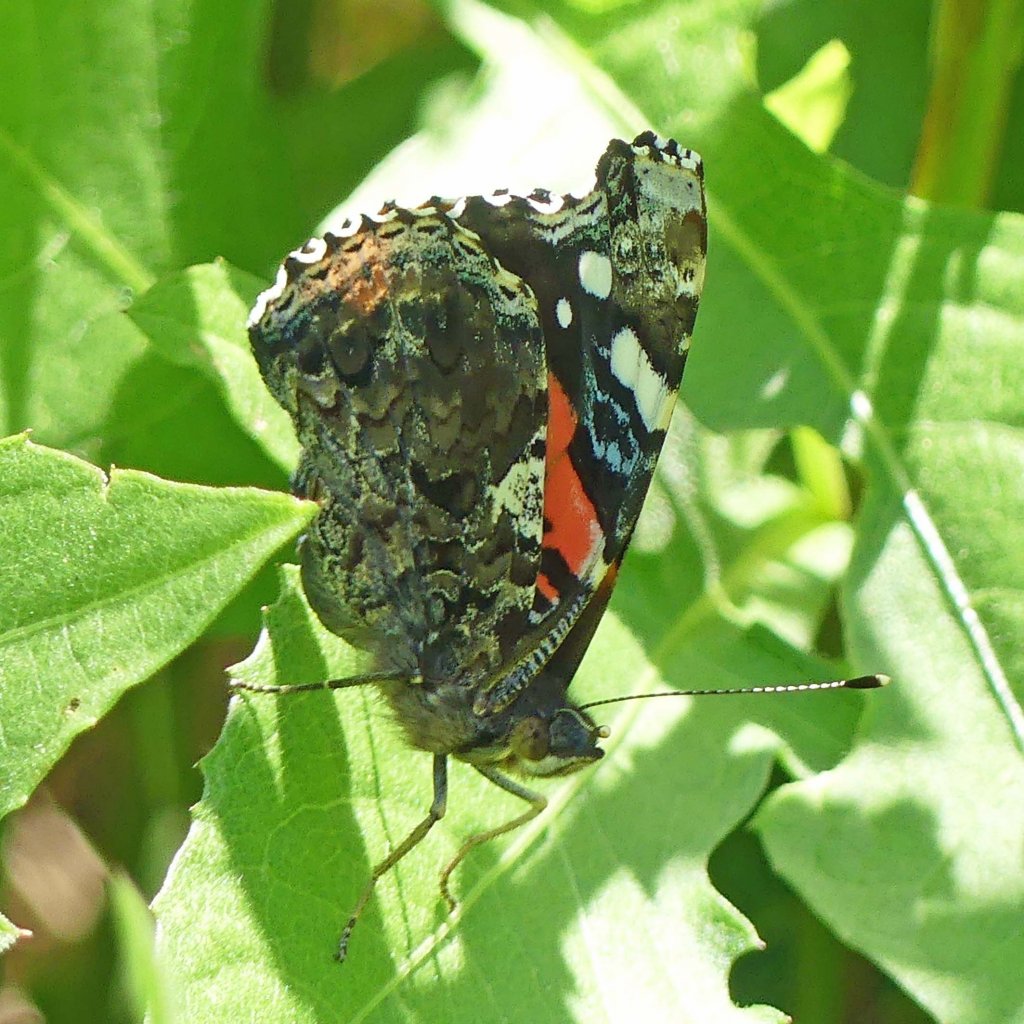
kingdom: Animalia
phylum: Arthropoda
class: Insecta
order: Lepidoptera
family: Nymphalidae
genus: Vanessa
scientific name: Vanessa atalanta
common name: Red Admiral
